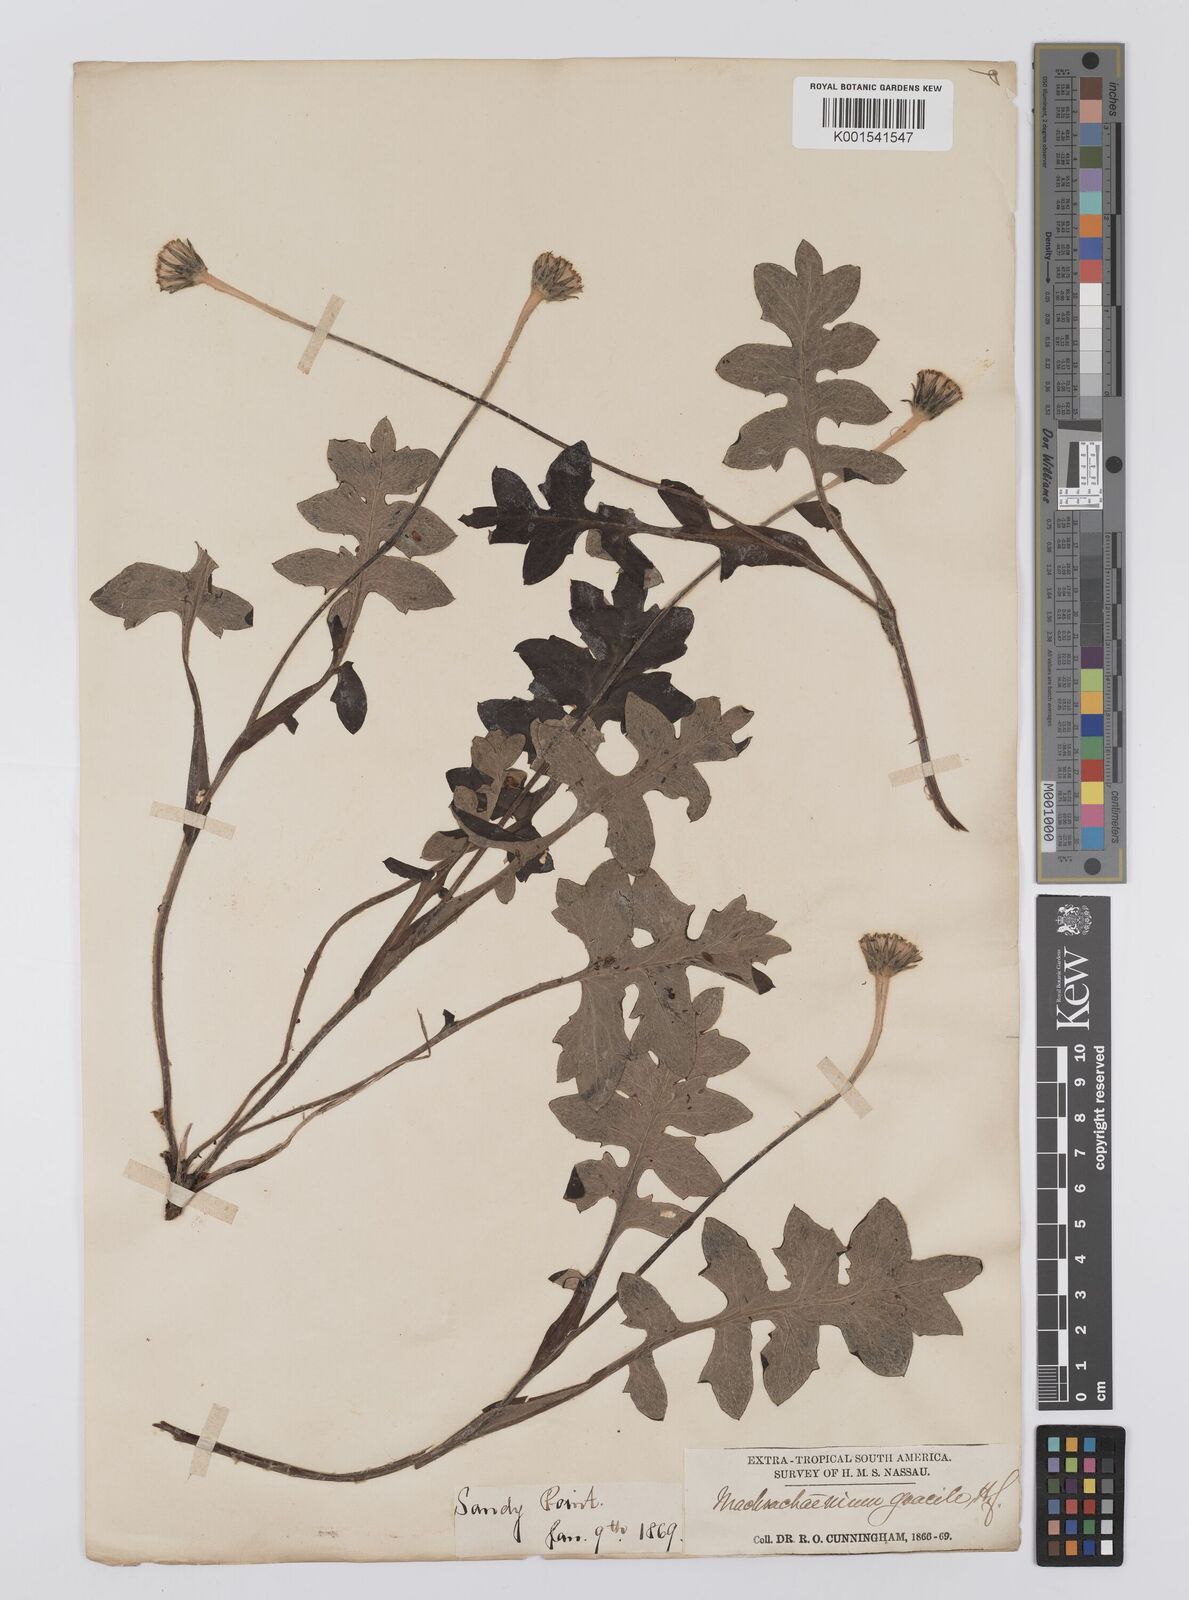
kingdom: Plantae
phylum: Tracheophyta
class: Magnoliopsida
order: Asterales
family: Asteraceae
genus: Macrachaenium
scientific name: Macrachaenium gracile
